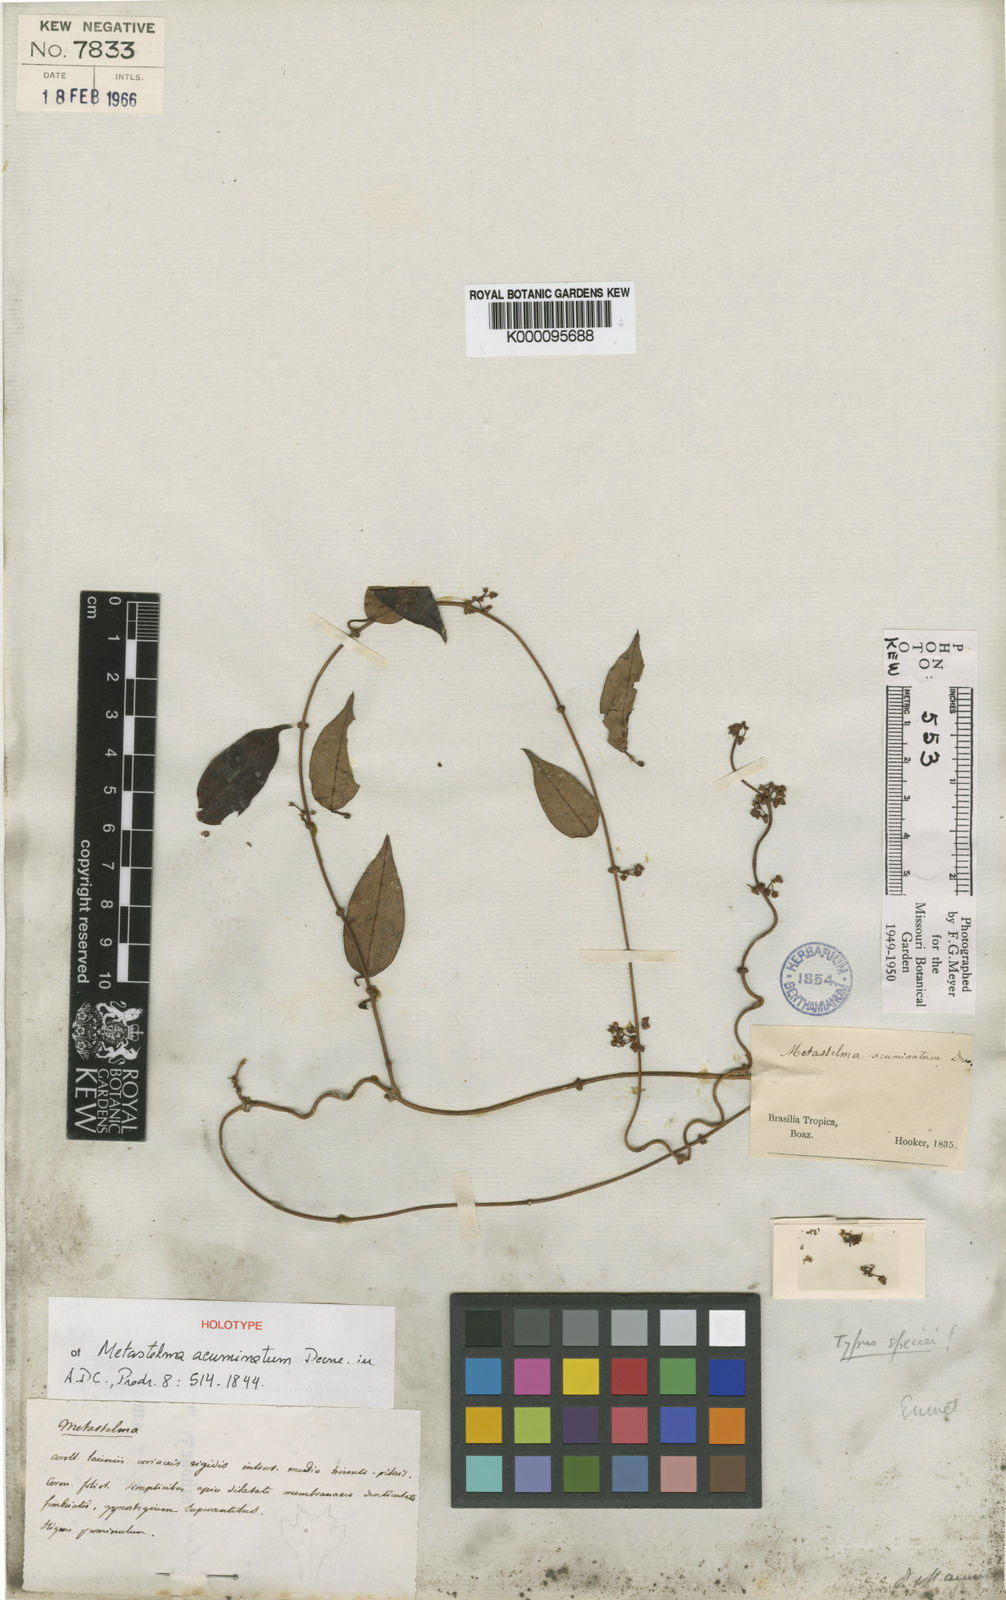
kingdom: Plantae
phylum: Tracheophyta
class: Magnoliopsida
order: Gentianales
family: Apocynaceae
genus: Peplonia
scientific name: Peplonia axillaris
